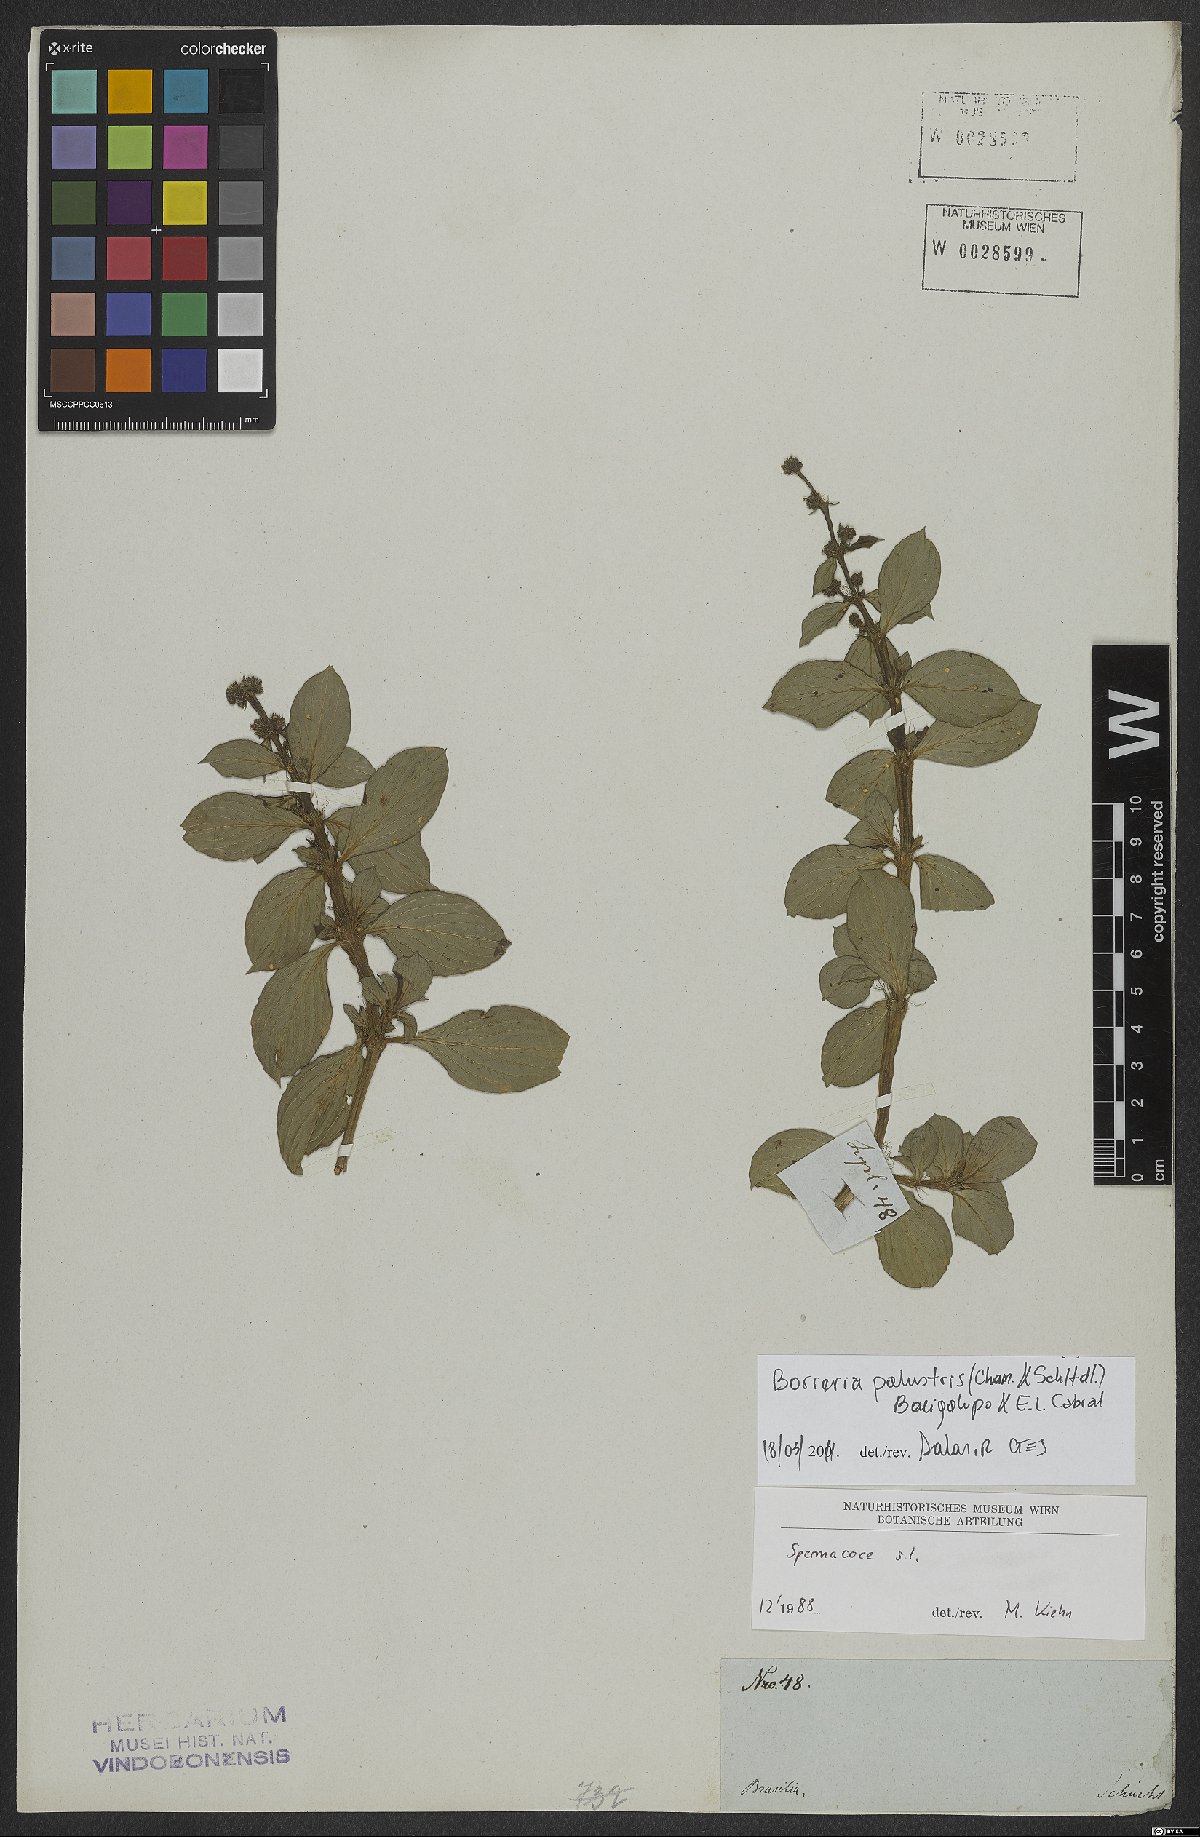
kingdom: Plantae
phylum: Tracheophyta
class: Magnoliopsida
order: Gentianales
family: Rubiaceae
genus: Galianthe
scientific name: Galianthe palustris
